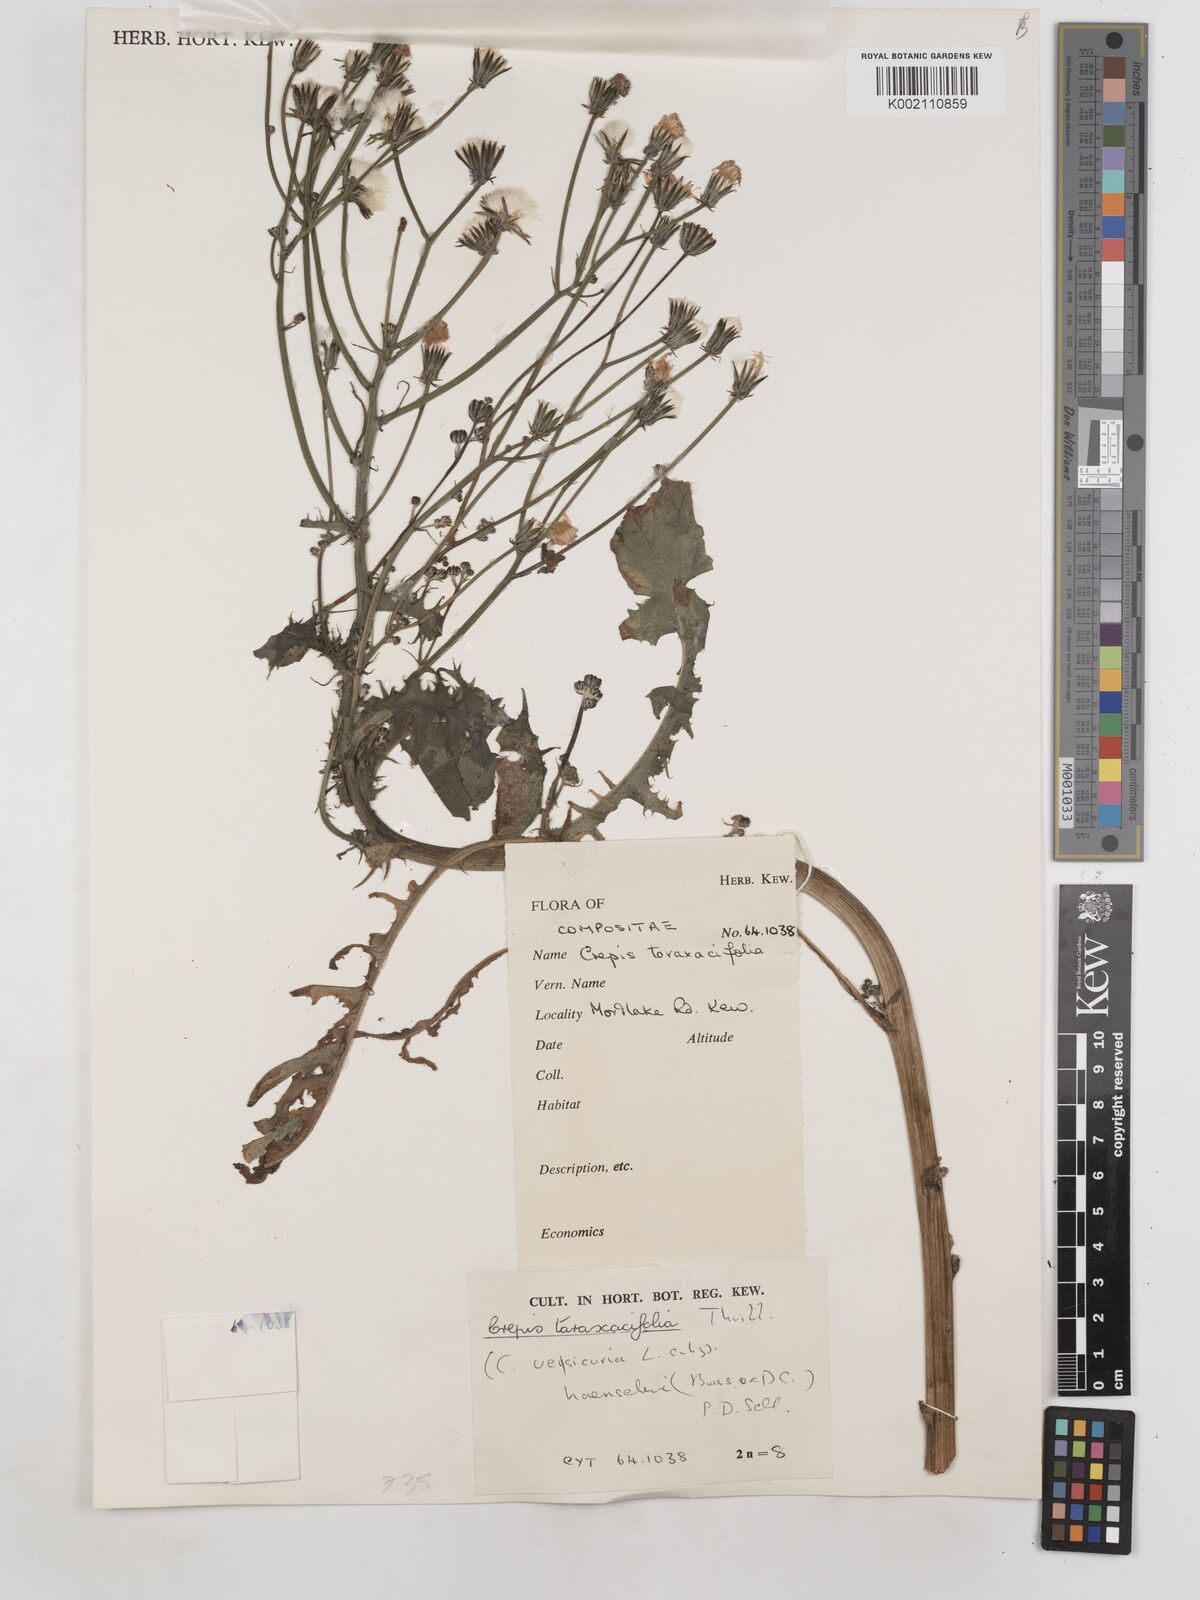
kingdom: Plantae
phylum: Tracheophyta
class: Magnoliopsida
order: Asterales
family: Asteraceae
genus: Crepis
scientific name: Crepis vesicaria
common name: Beaked hawksbeard
